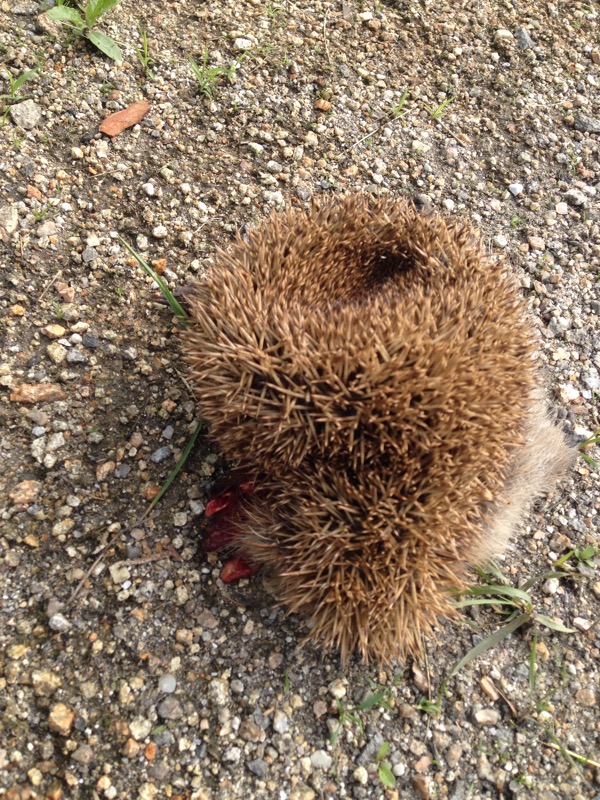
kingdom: Animalia
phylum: Chordata
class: Mammalia
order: Erinaceomorpha
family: Erinaceidae
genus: Erinaceus
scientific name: Erinaceus
